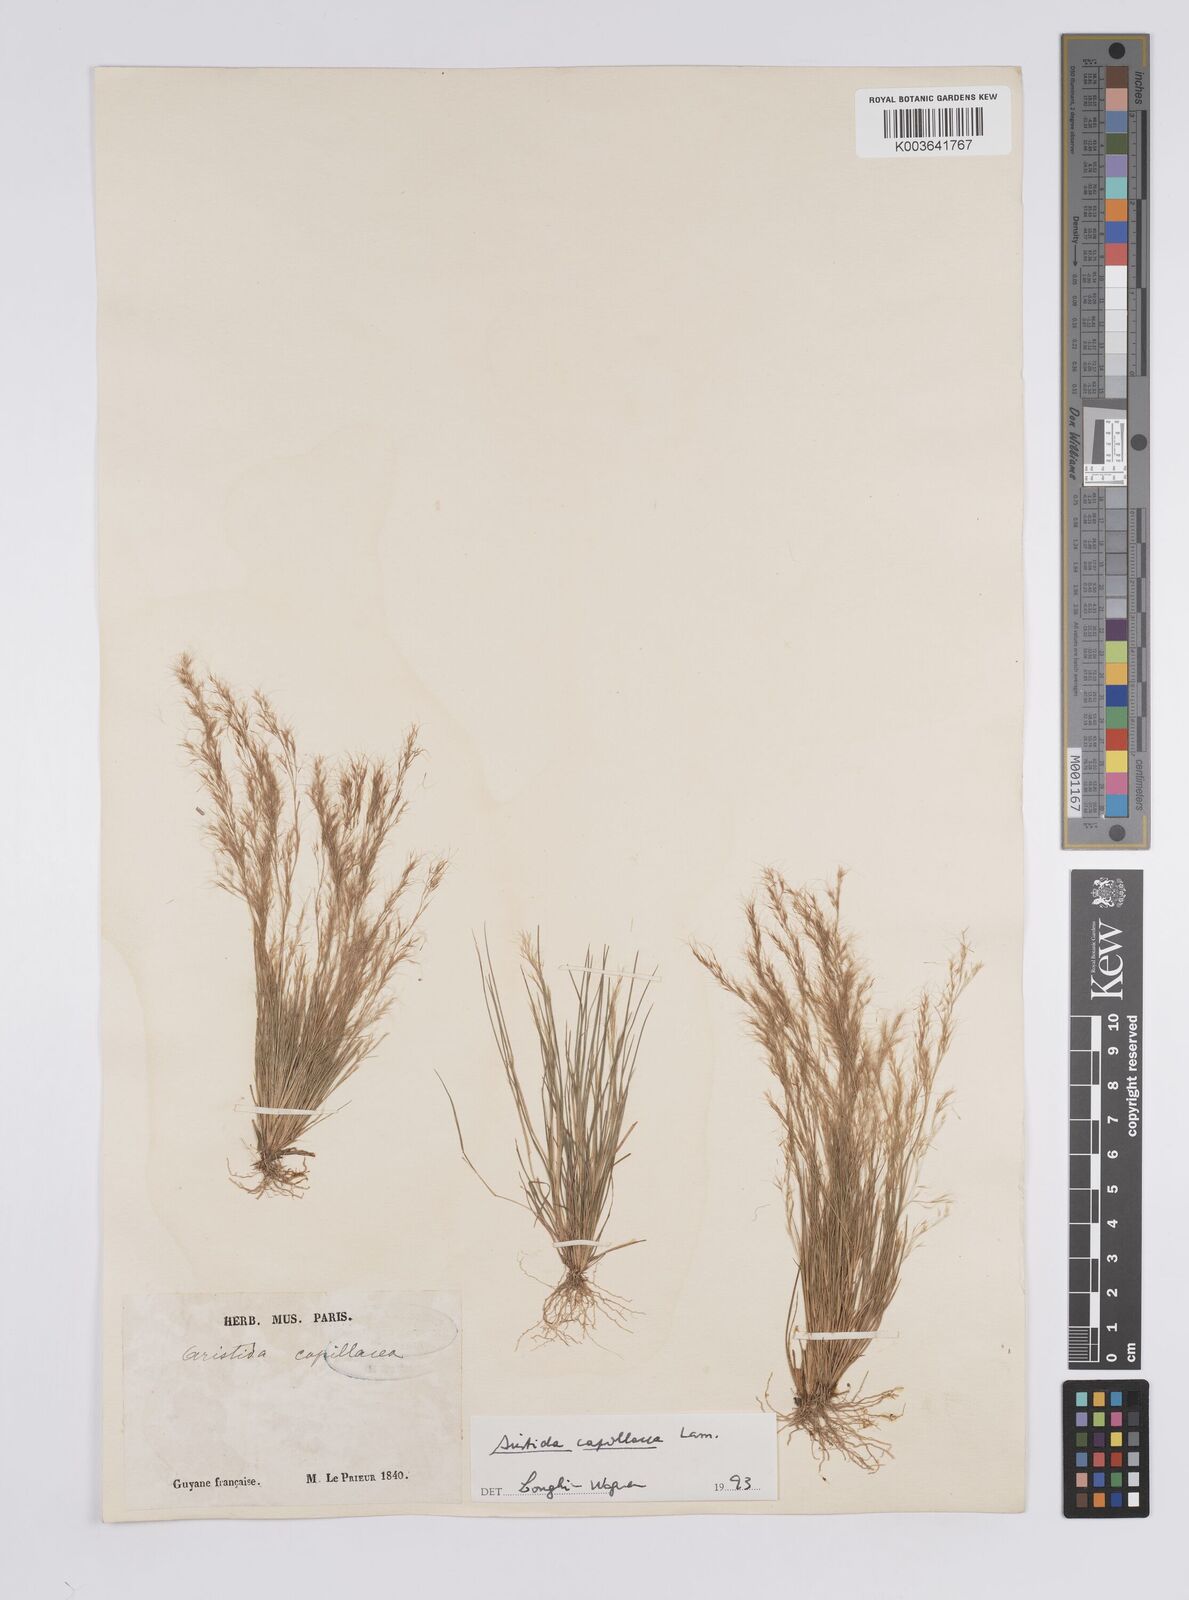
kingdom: Plantae
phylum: Tracheophyta
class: Liliopsida
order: Poales
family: Poaceae
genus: Aristida
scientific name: Aristida capillacea
